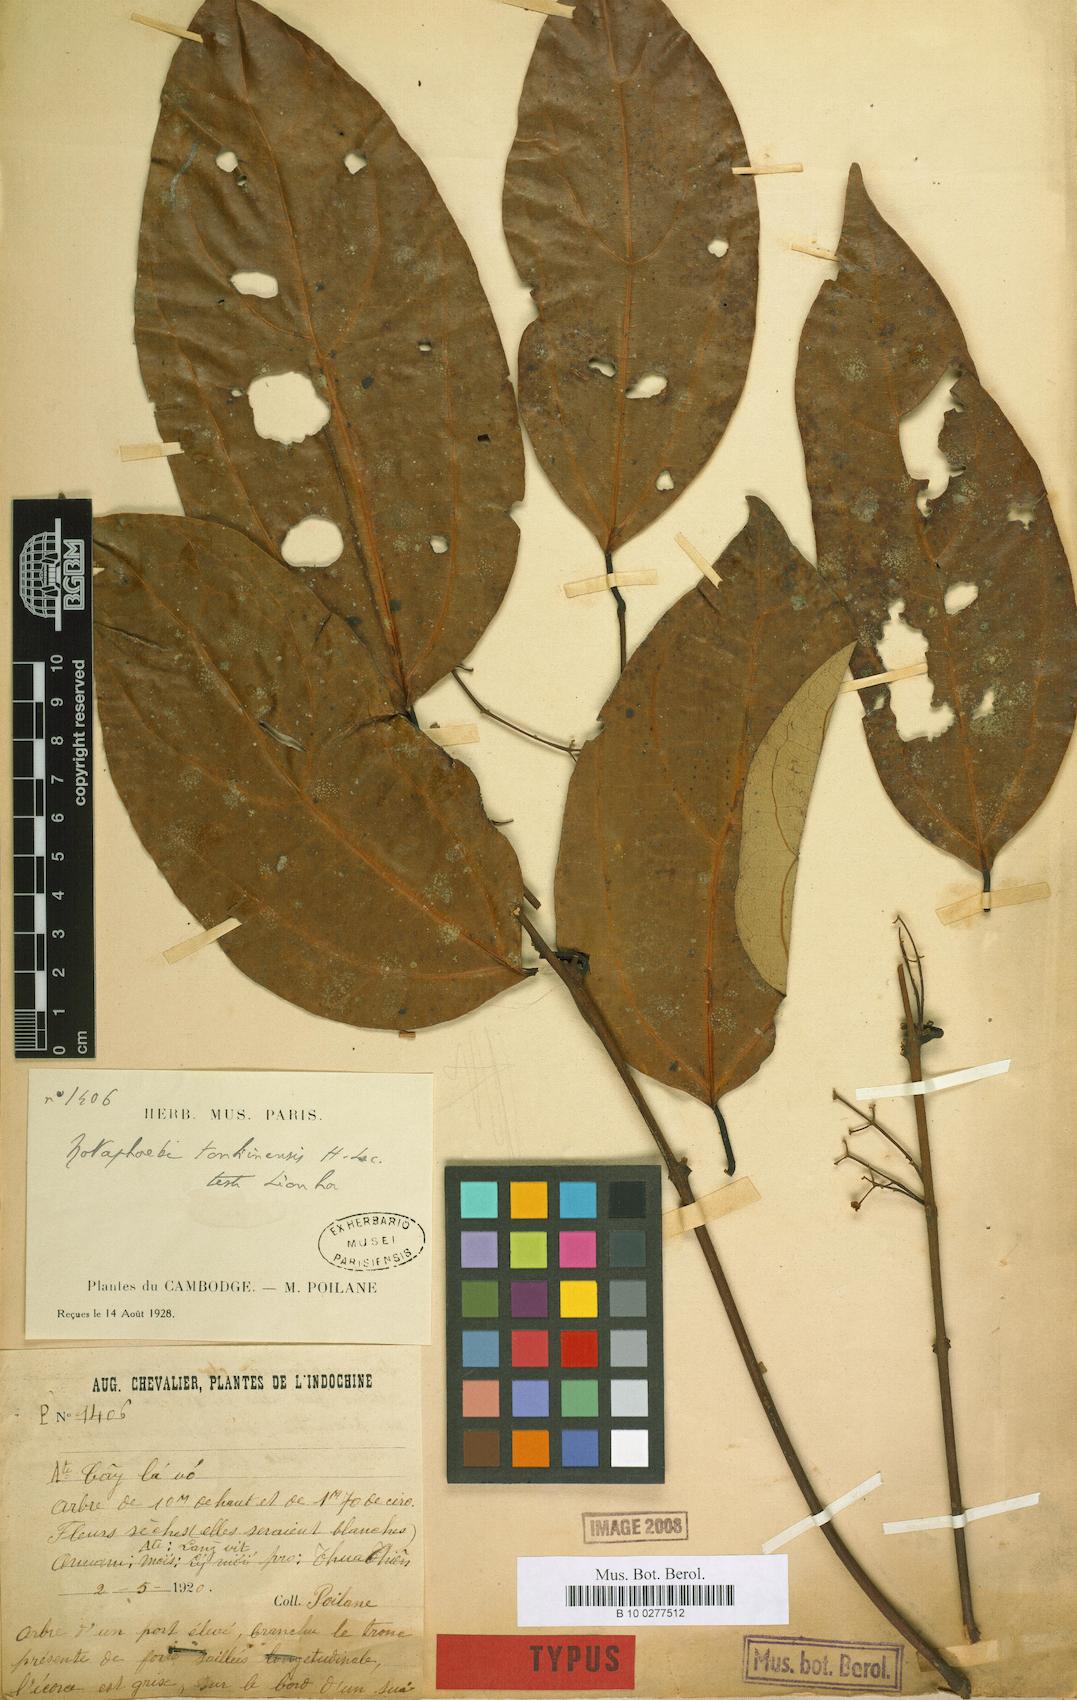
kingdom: Plantae
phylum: Tracheophyta
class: Magnoliopsida
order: Laurales
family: Lauraceae
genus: Caryodaphnopsis
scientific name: Caryodaphnopsis tonkinensis
